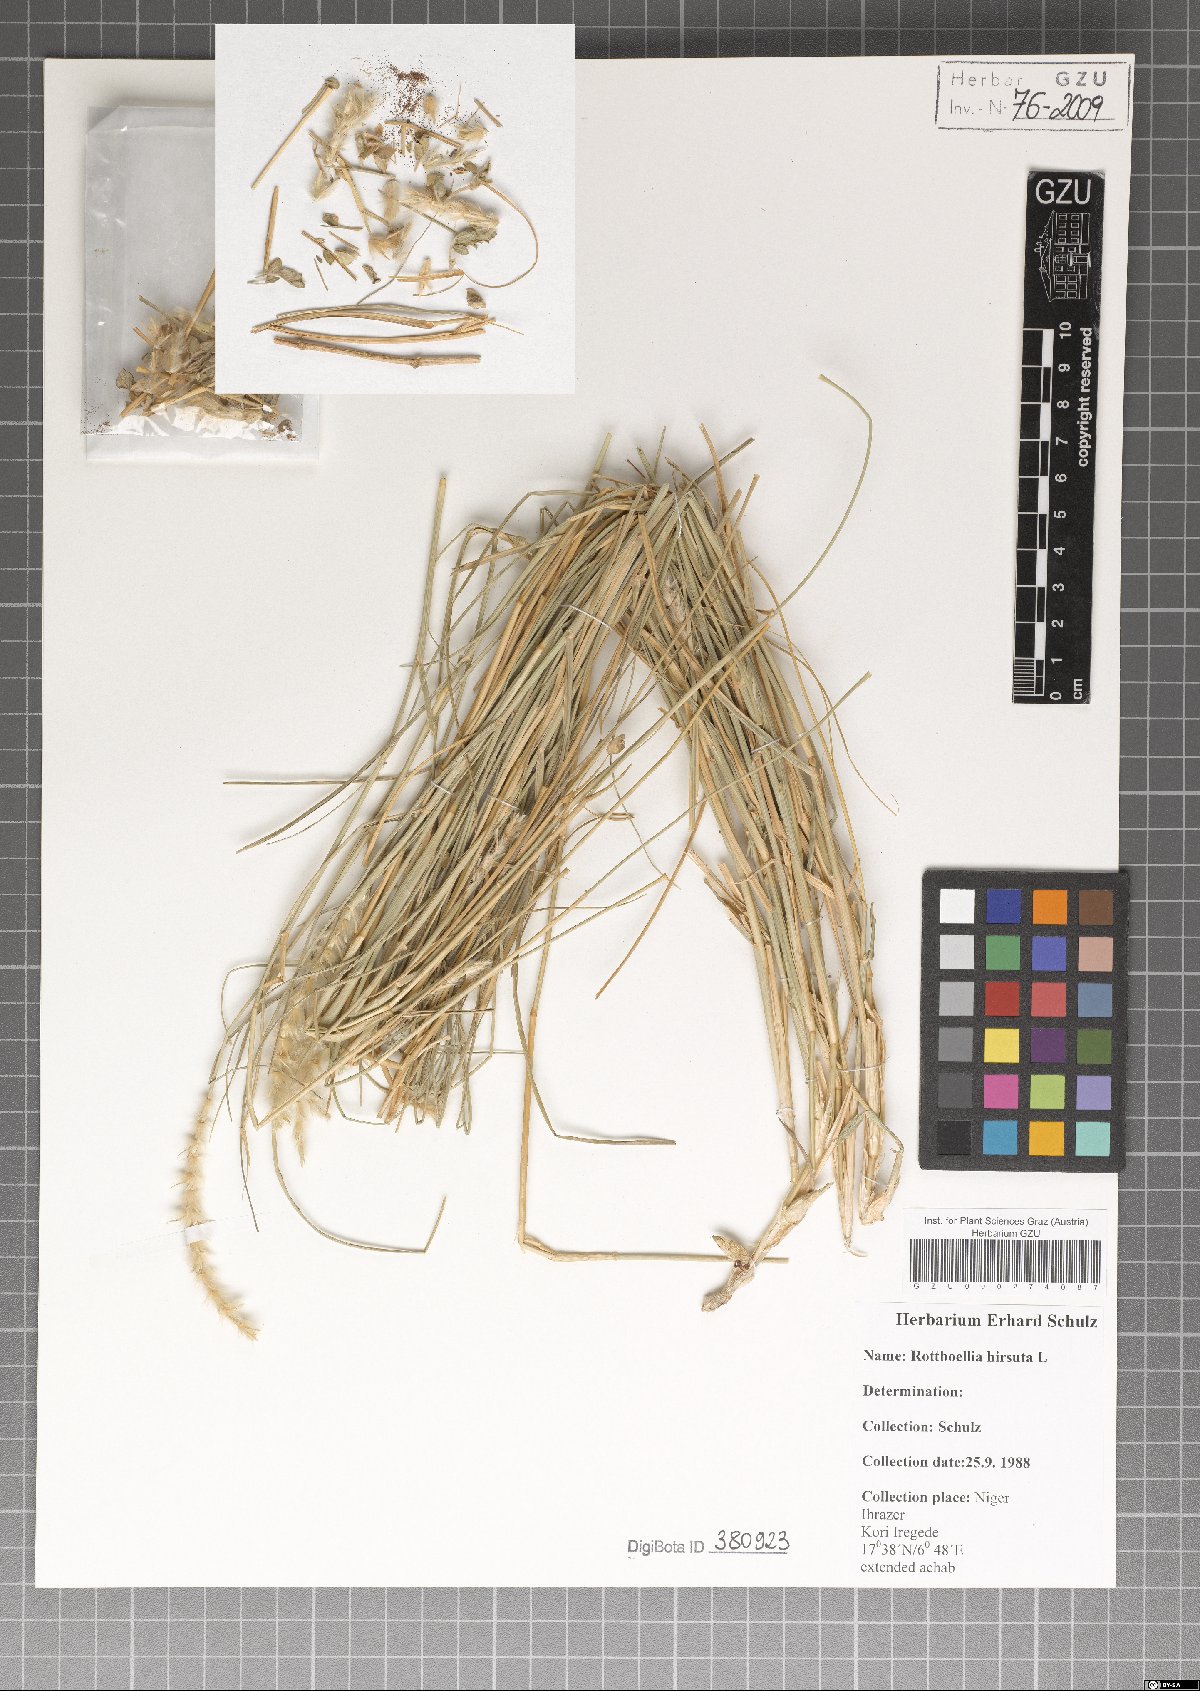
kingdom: Plantae
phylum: Tracheophyta
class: Liliopsida
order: Poales
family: Poaceae
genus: Lasiurus
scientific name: Lasiurus scindicus
